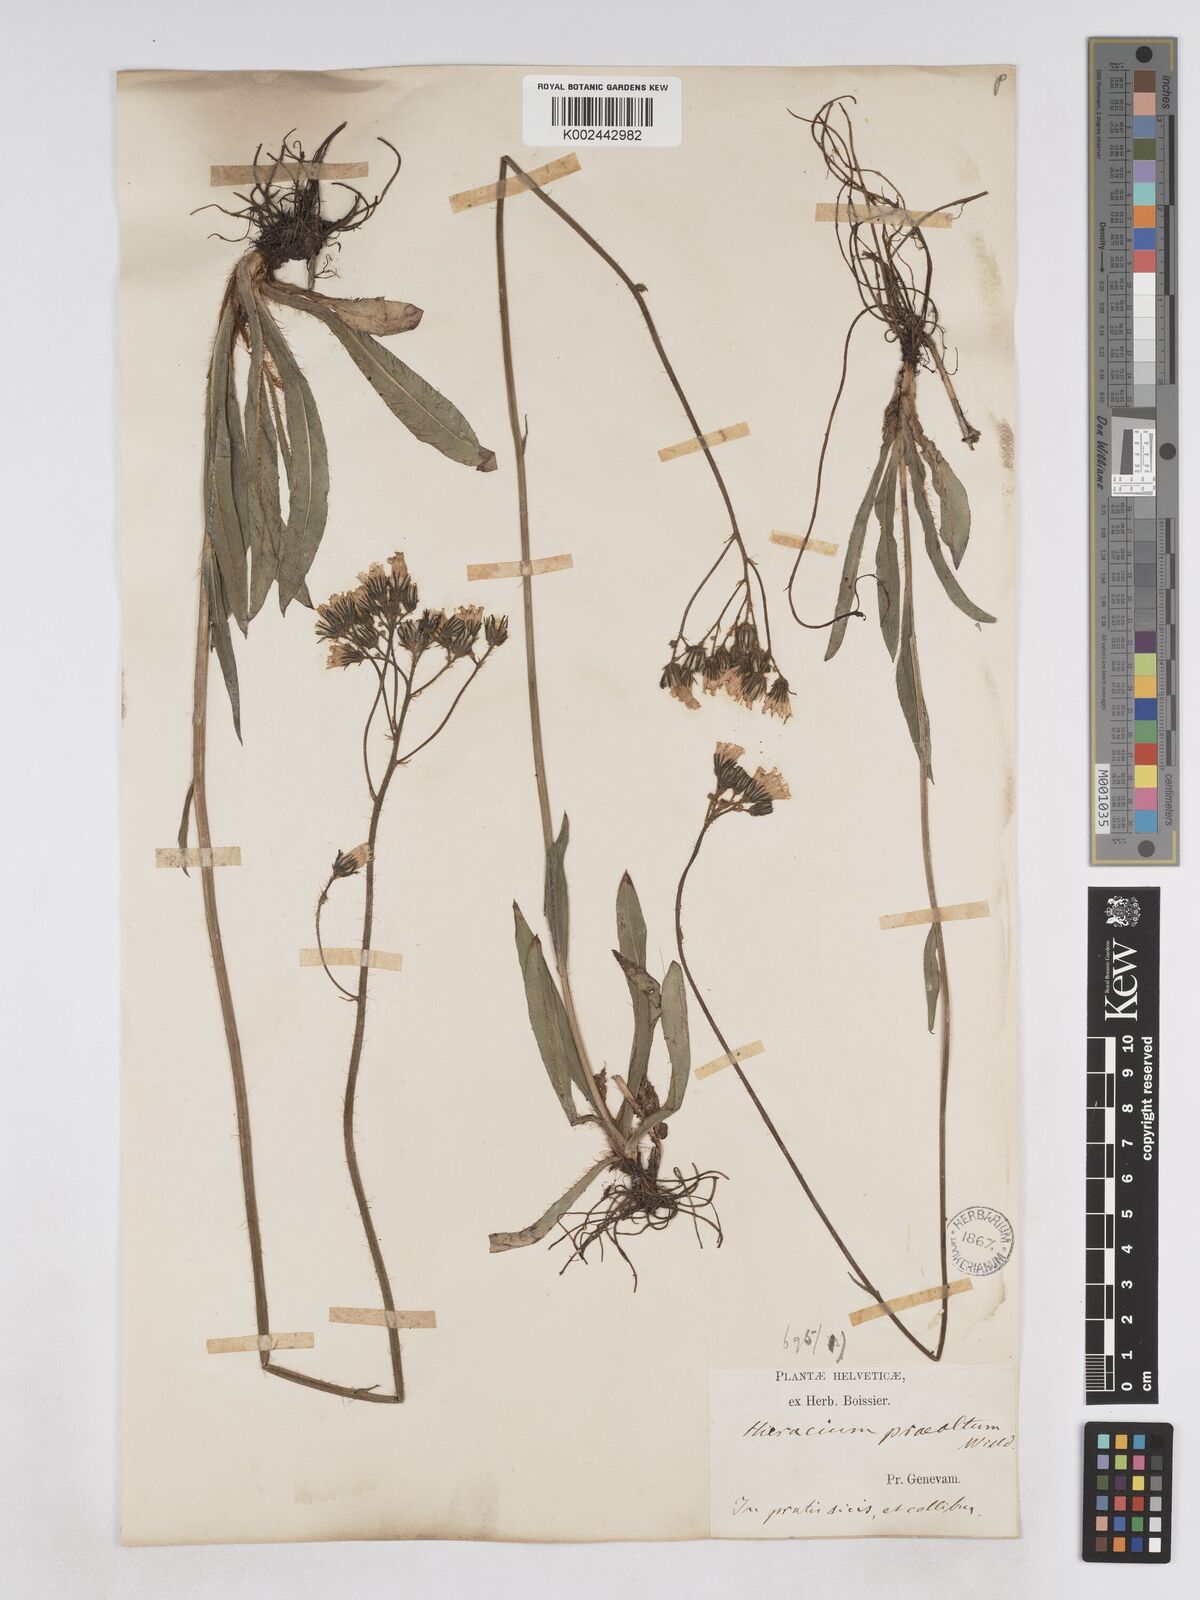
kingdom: Plantae
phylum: Tracheophyta
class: Magnoliopsida
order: Asterales
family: Asteraceae
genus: Pilosella
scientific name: Pilosella piloselloides
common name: Glaucous king-devil
